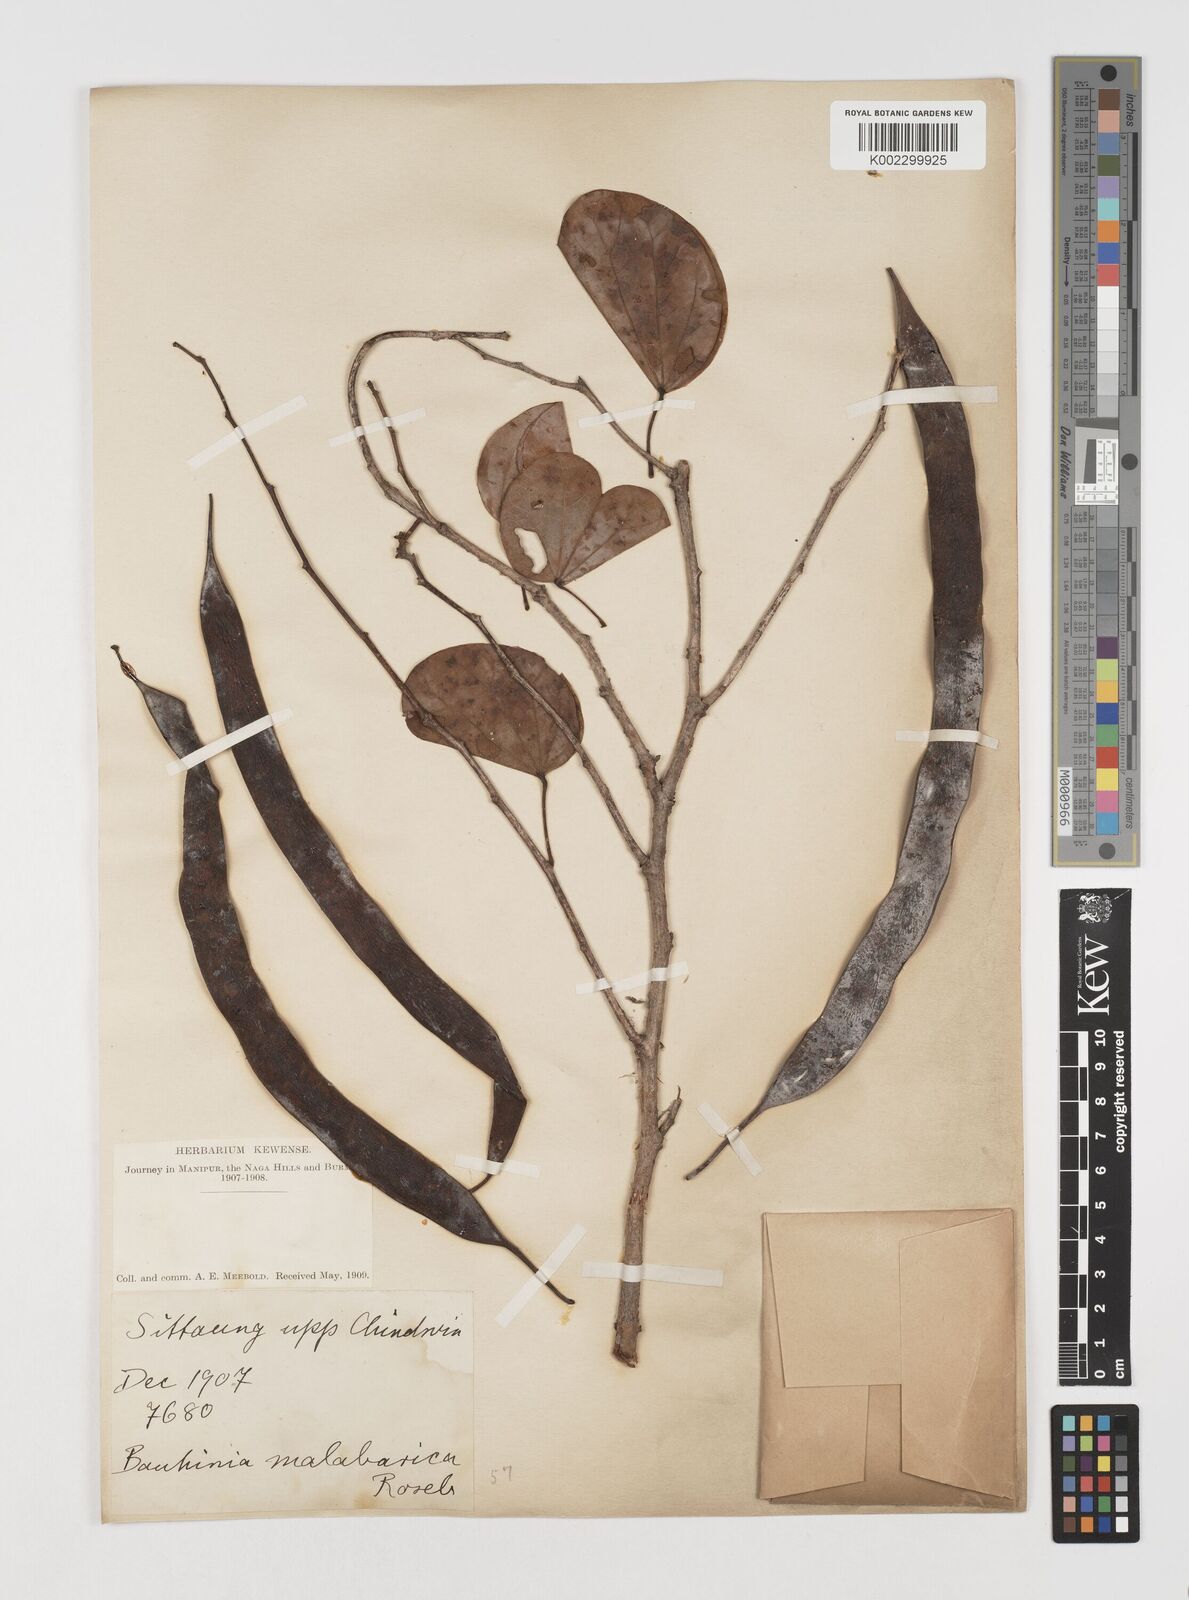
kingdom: Plantae
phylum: Tracheophyta
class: Magnoliopsida
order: Fabales
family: Fabaceae
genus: Piliostigma
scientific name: Piliostigma malabaricum
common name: Malabar bauhinia
